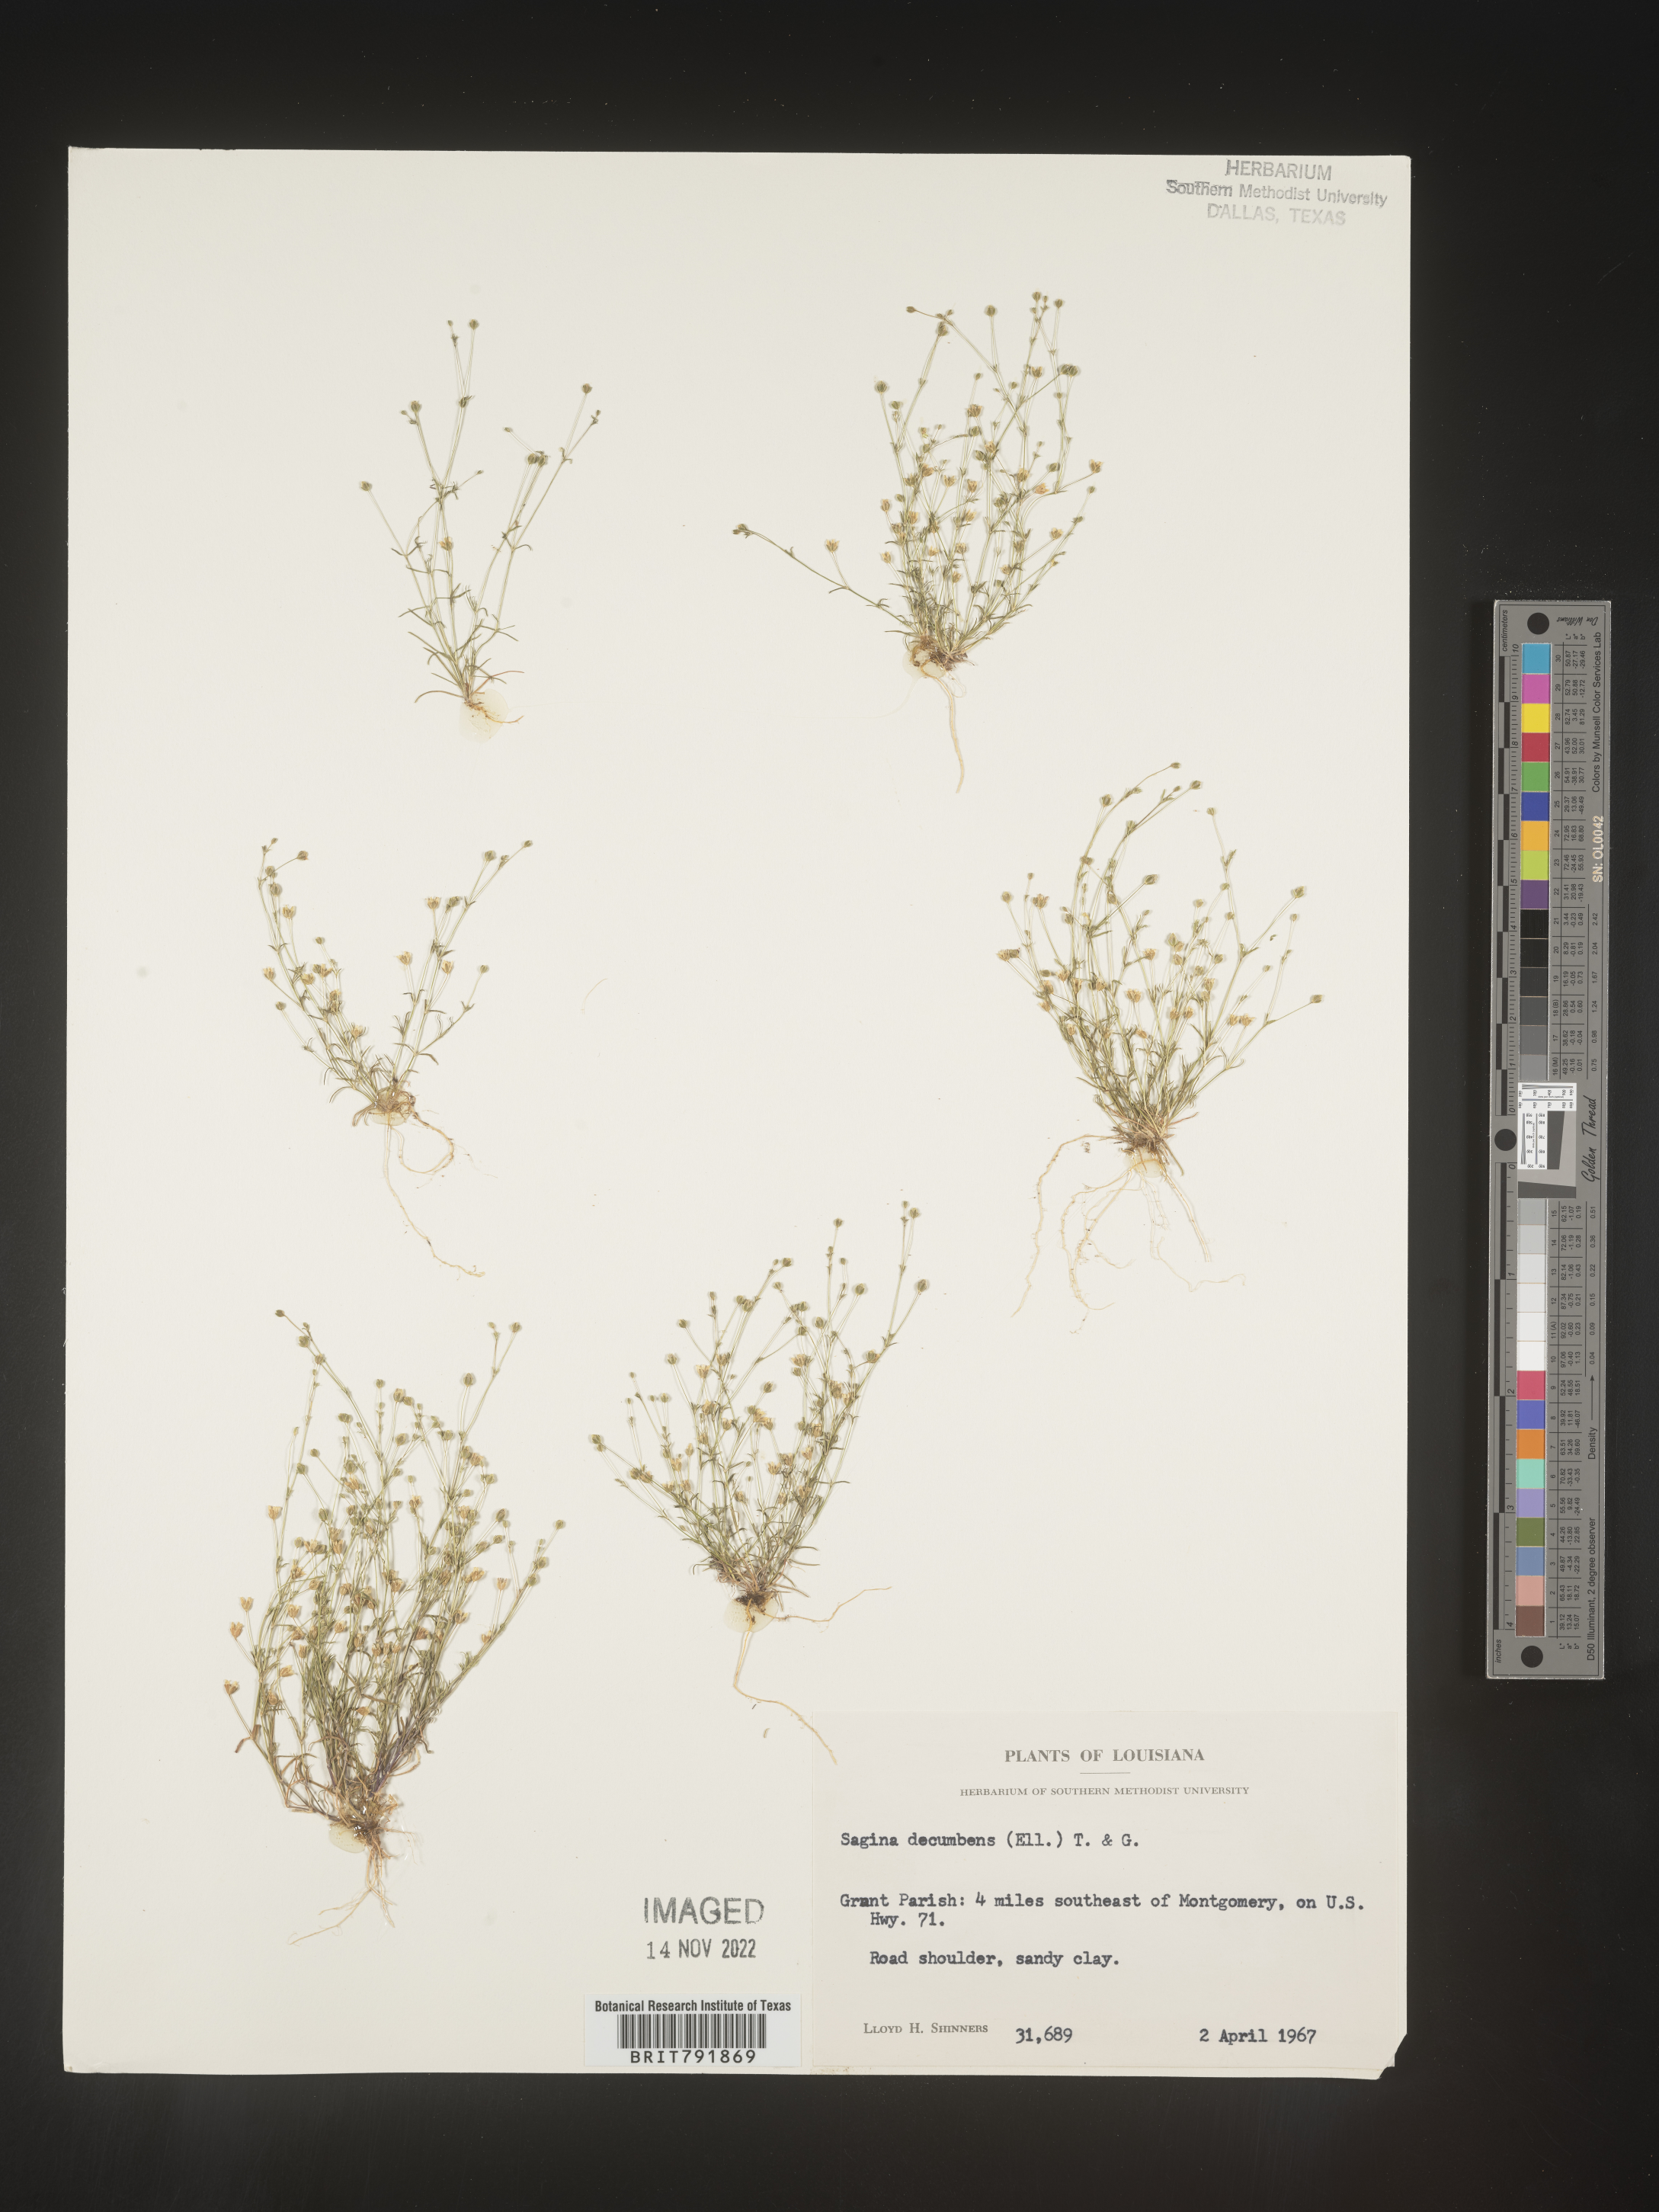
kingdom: Plantae
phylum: Tracheophyta
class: Magnoliopsida
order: Caryophyllales
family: Caryophyllaceae
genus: Sagina
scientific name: Sagina decumbens
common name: Decumbent pearlwort
